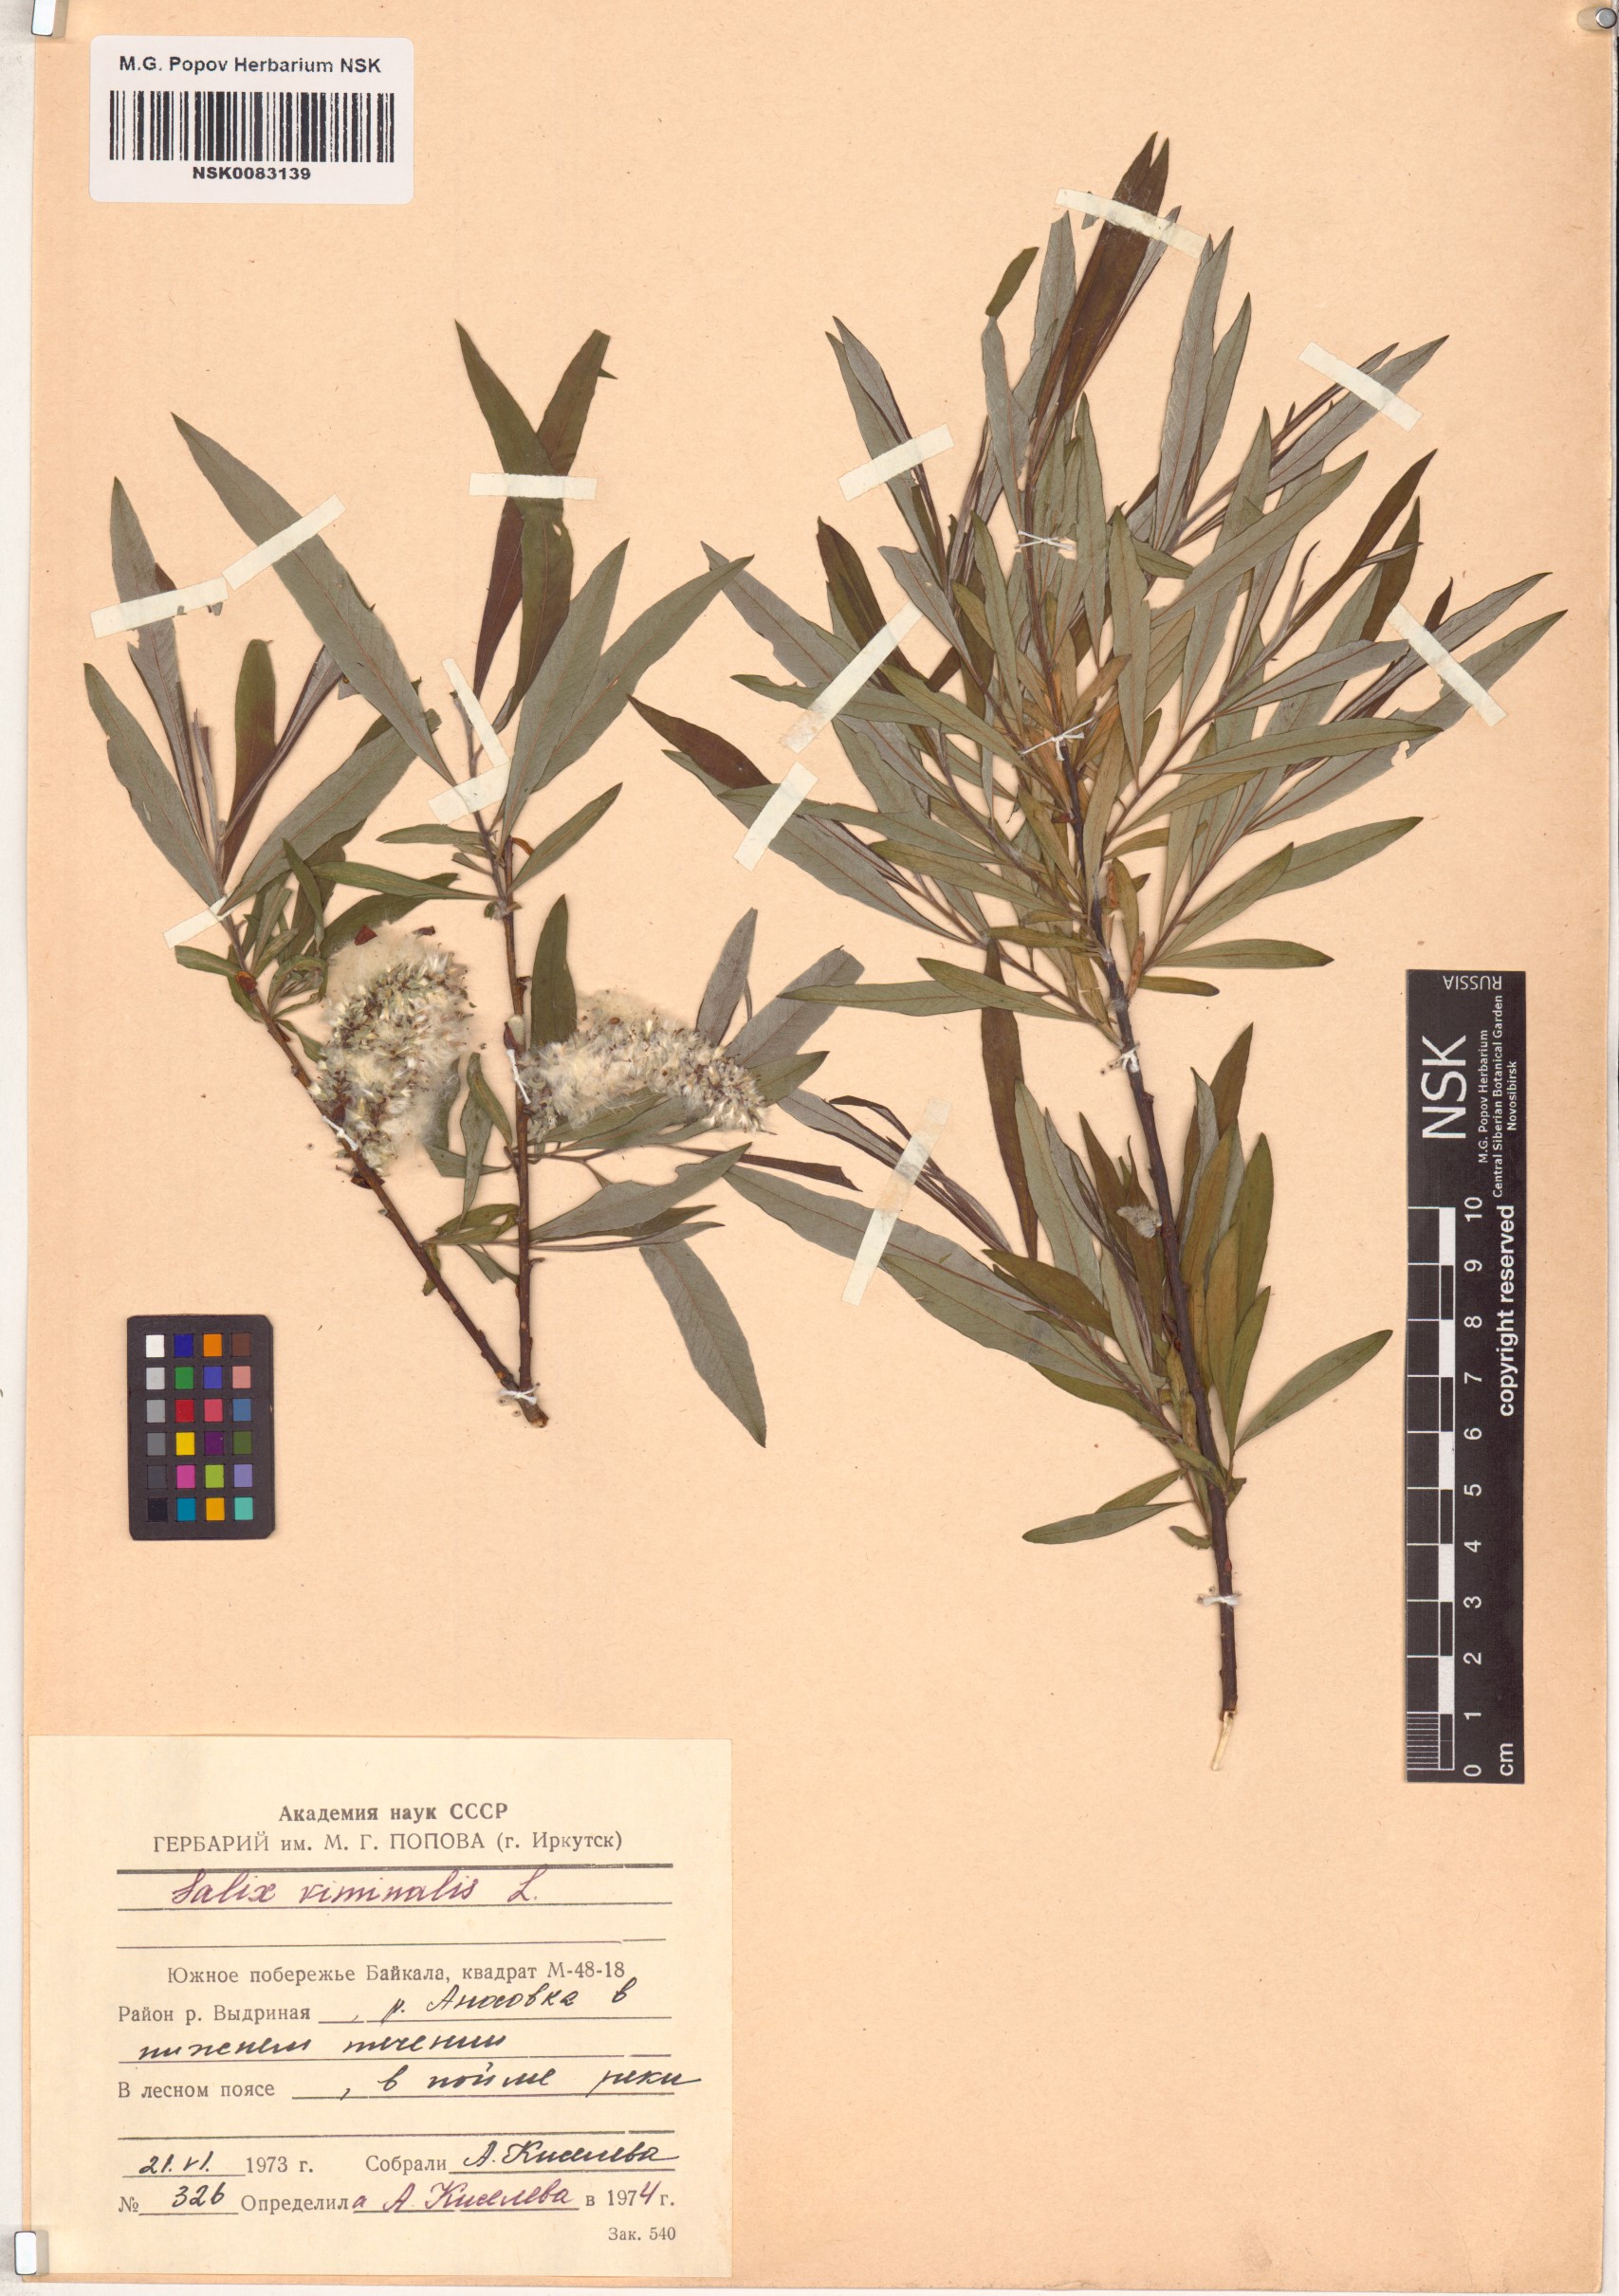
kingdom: Plantae
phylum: Tracheophyta
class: Magnoliopsida
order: Malpighiales
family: Salicaceae
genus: Salix
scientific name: Salix viminalis
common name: Osier
